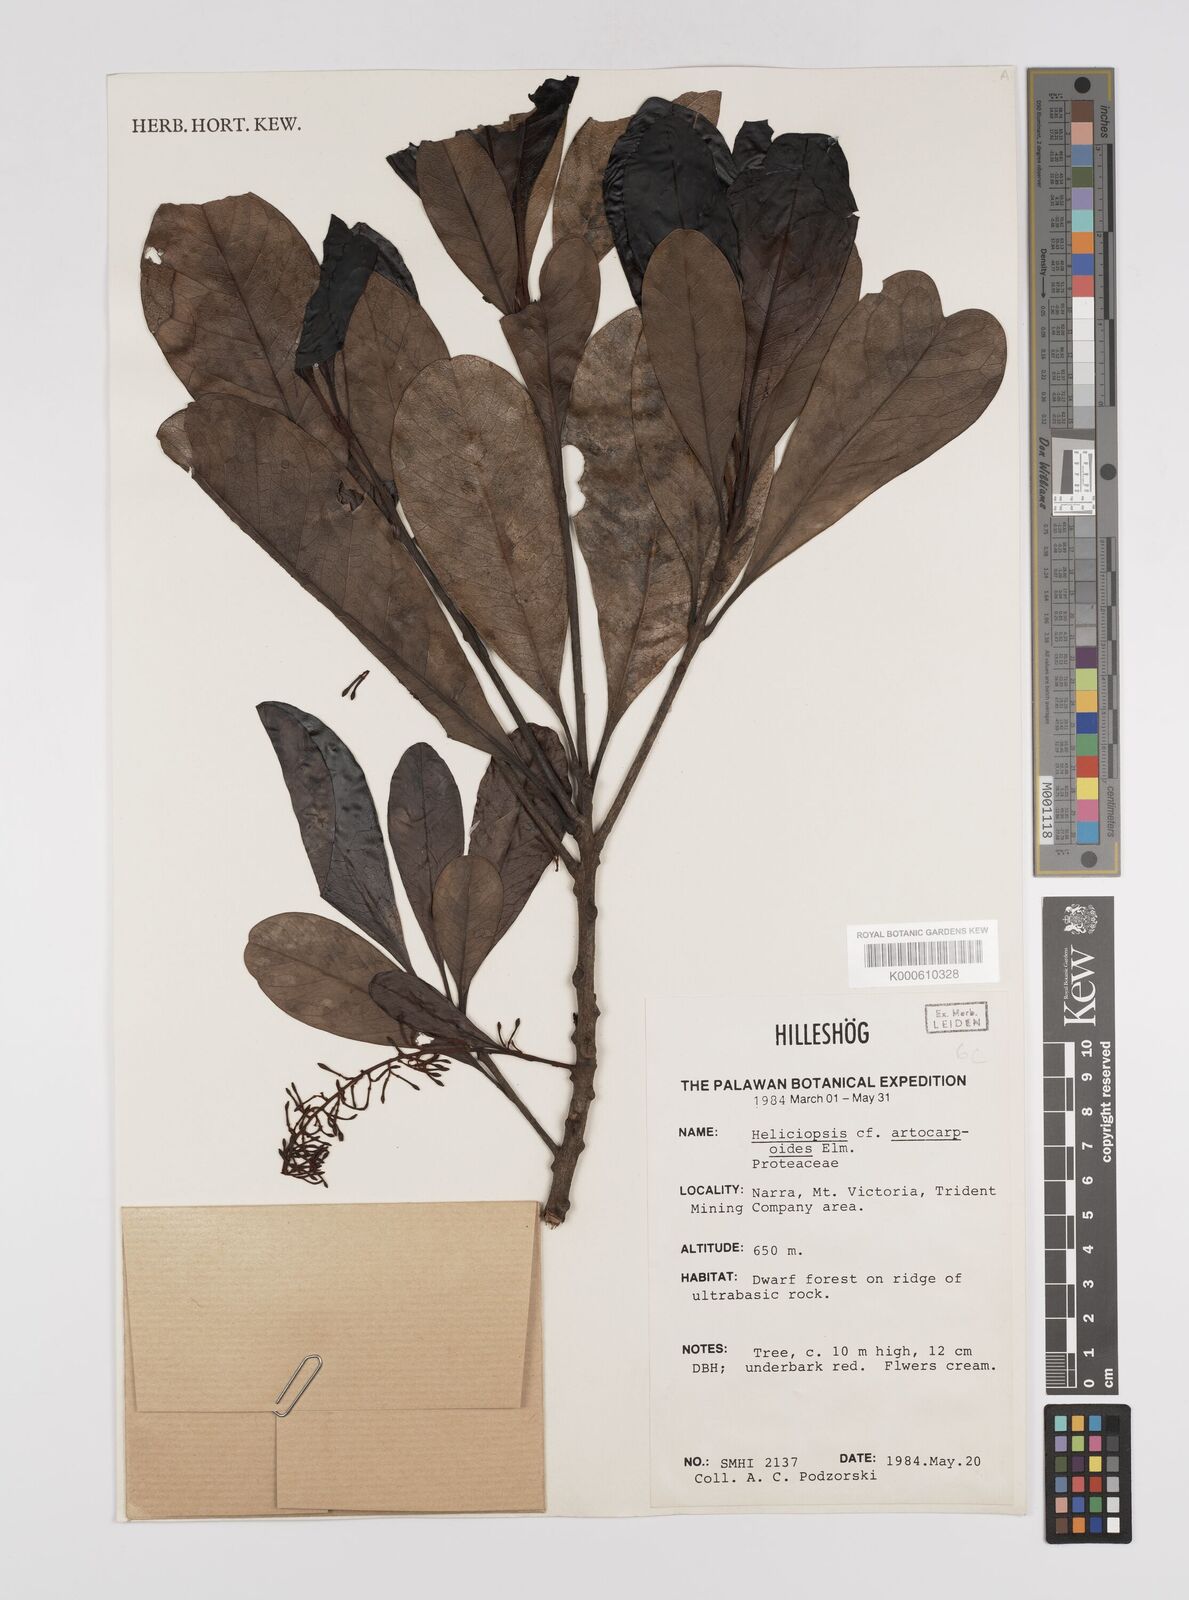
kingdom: Plantae
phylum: Tracheophyta
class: Magnoliopsida
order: Proteales
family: Proteaceae
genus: Heliciopsis
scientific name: Heliciopsis artocarpoides
